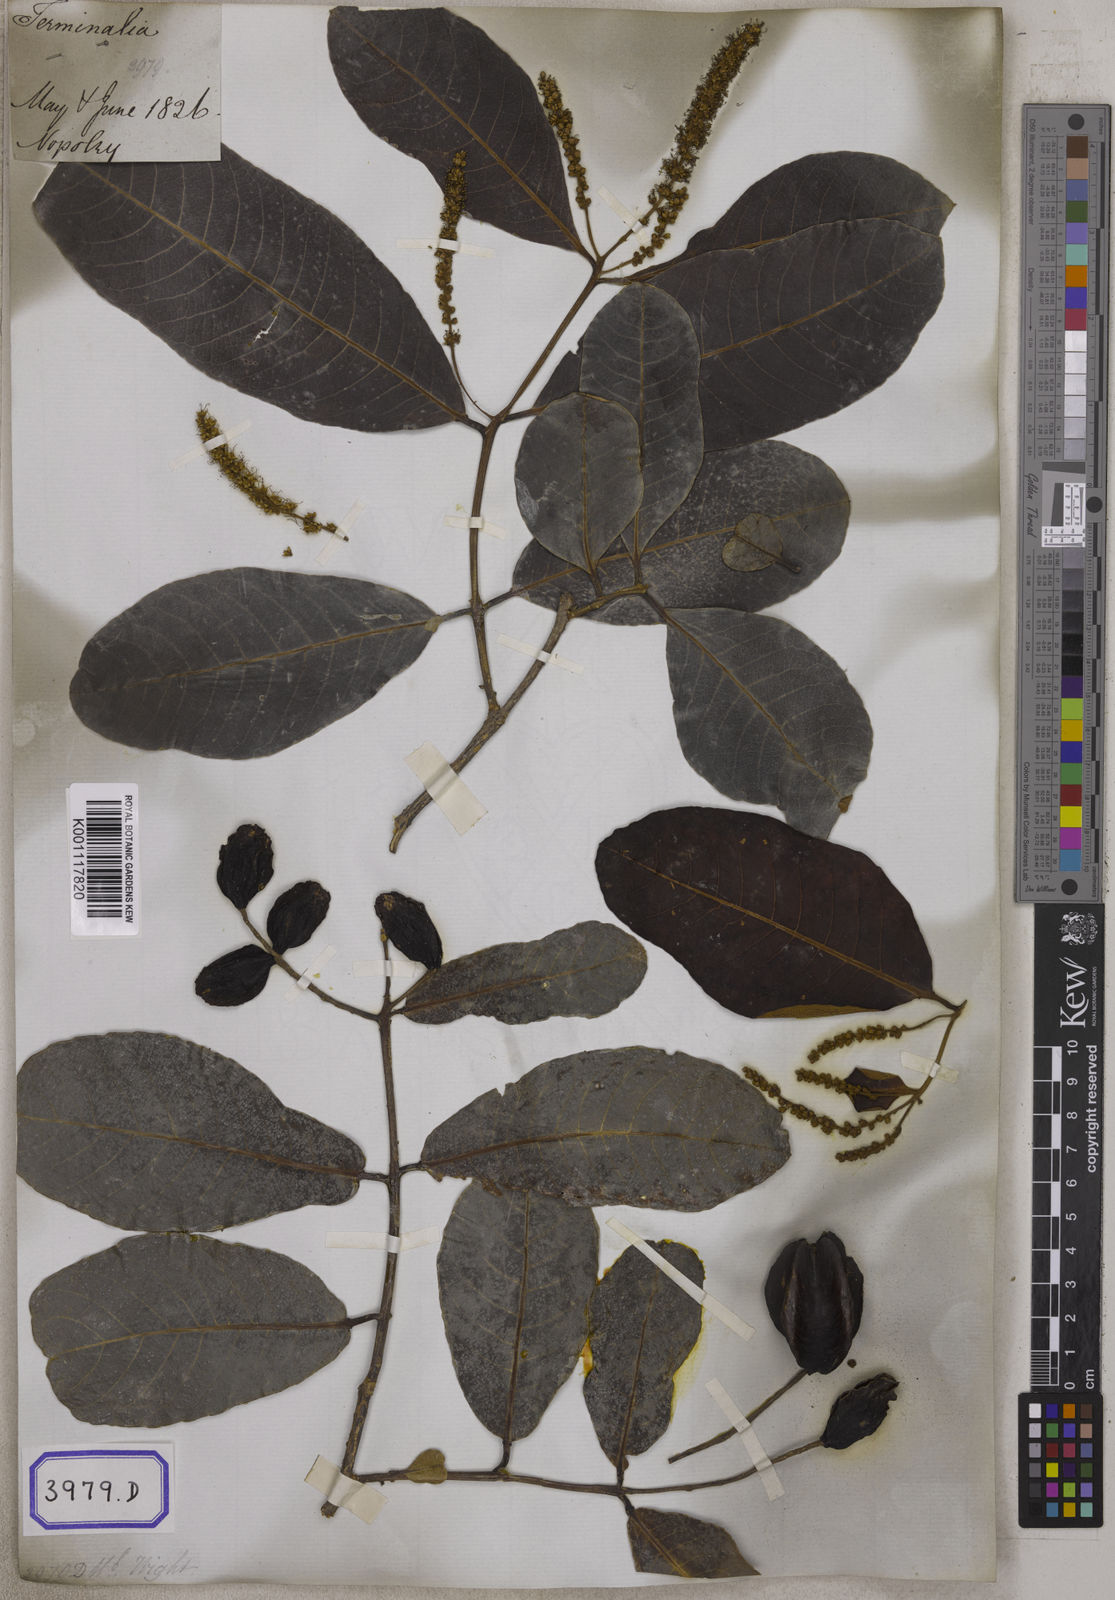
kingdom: Plantae
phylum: Tracheophyta
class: Magnoliopsida
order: Myrtales
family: Combretaceae
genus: Terminalia
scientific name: Terminalia arjuna
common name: Arjun
